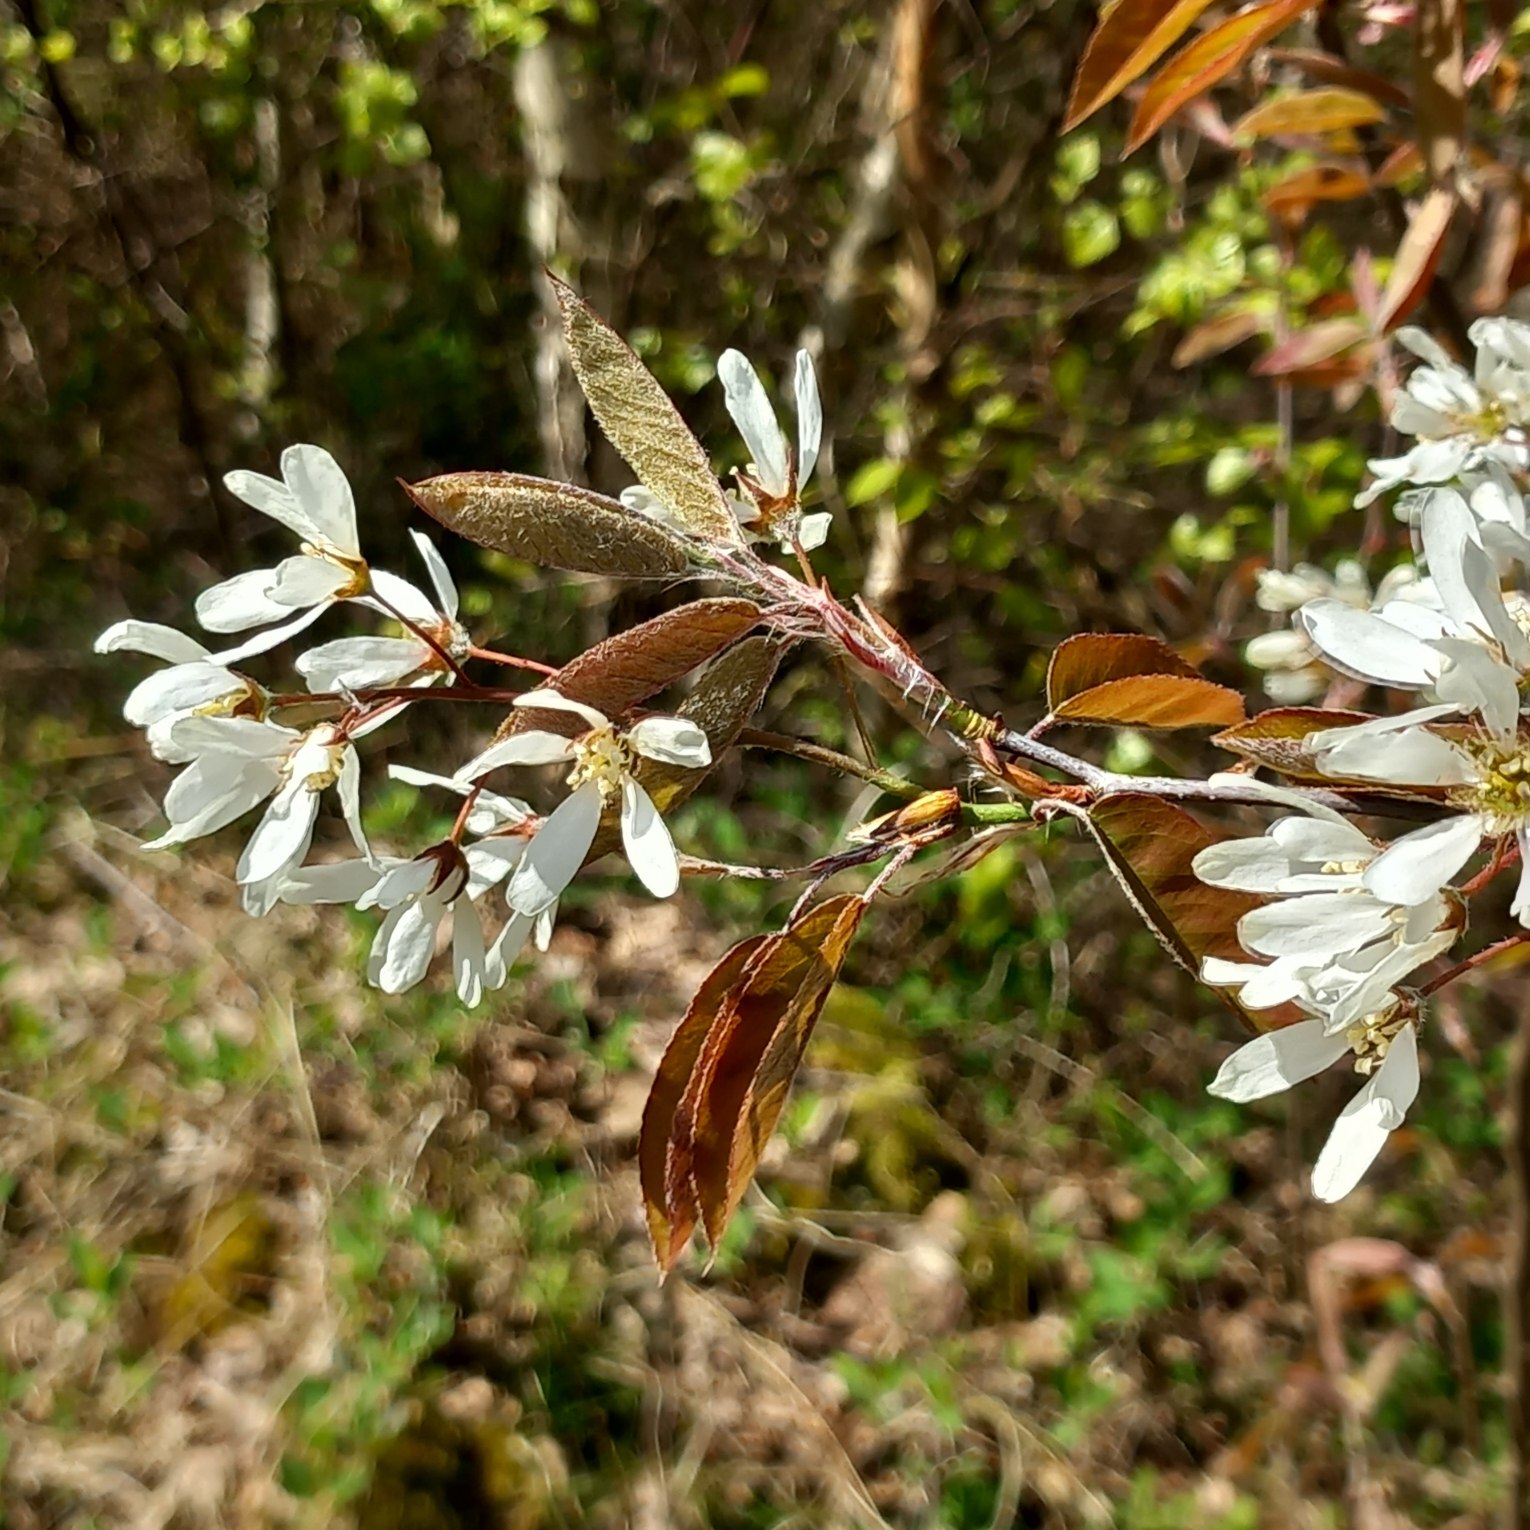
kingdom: Plantae
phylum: Tracheophyta
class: Magnoliopsida
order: Rosales
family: Rosaceae
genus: Amelanchier
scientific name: Amelanchier lamarckii
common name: Bærmispel
